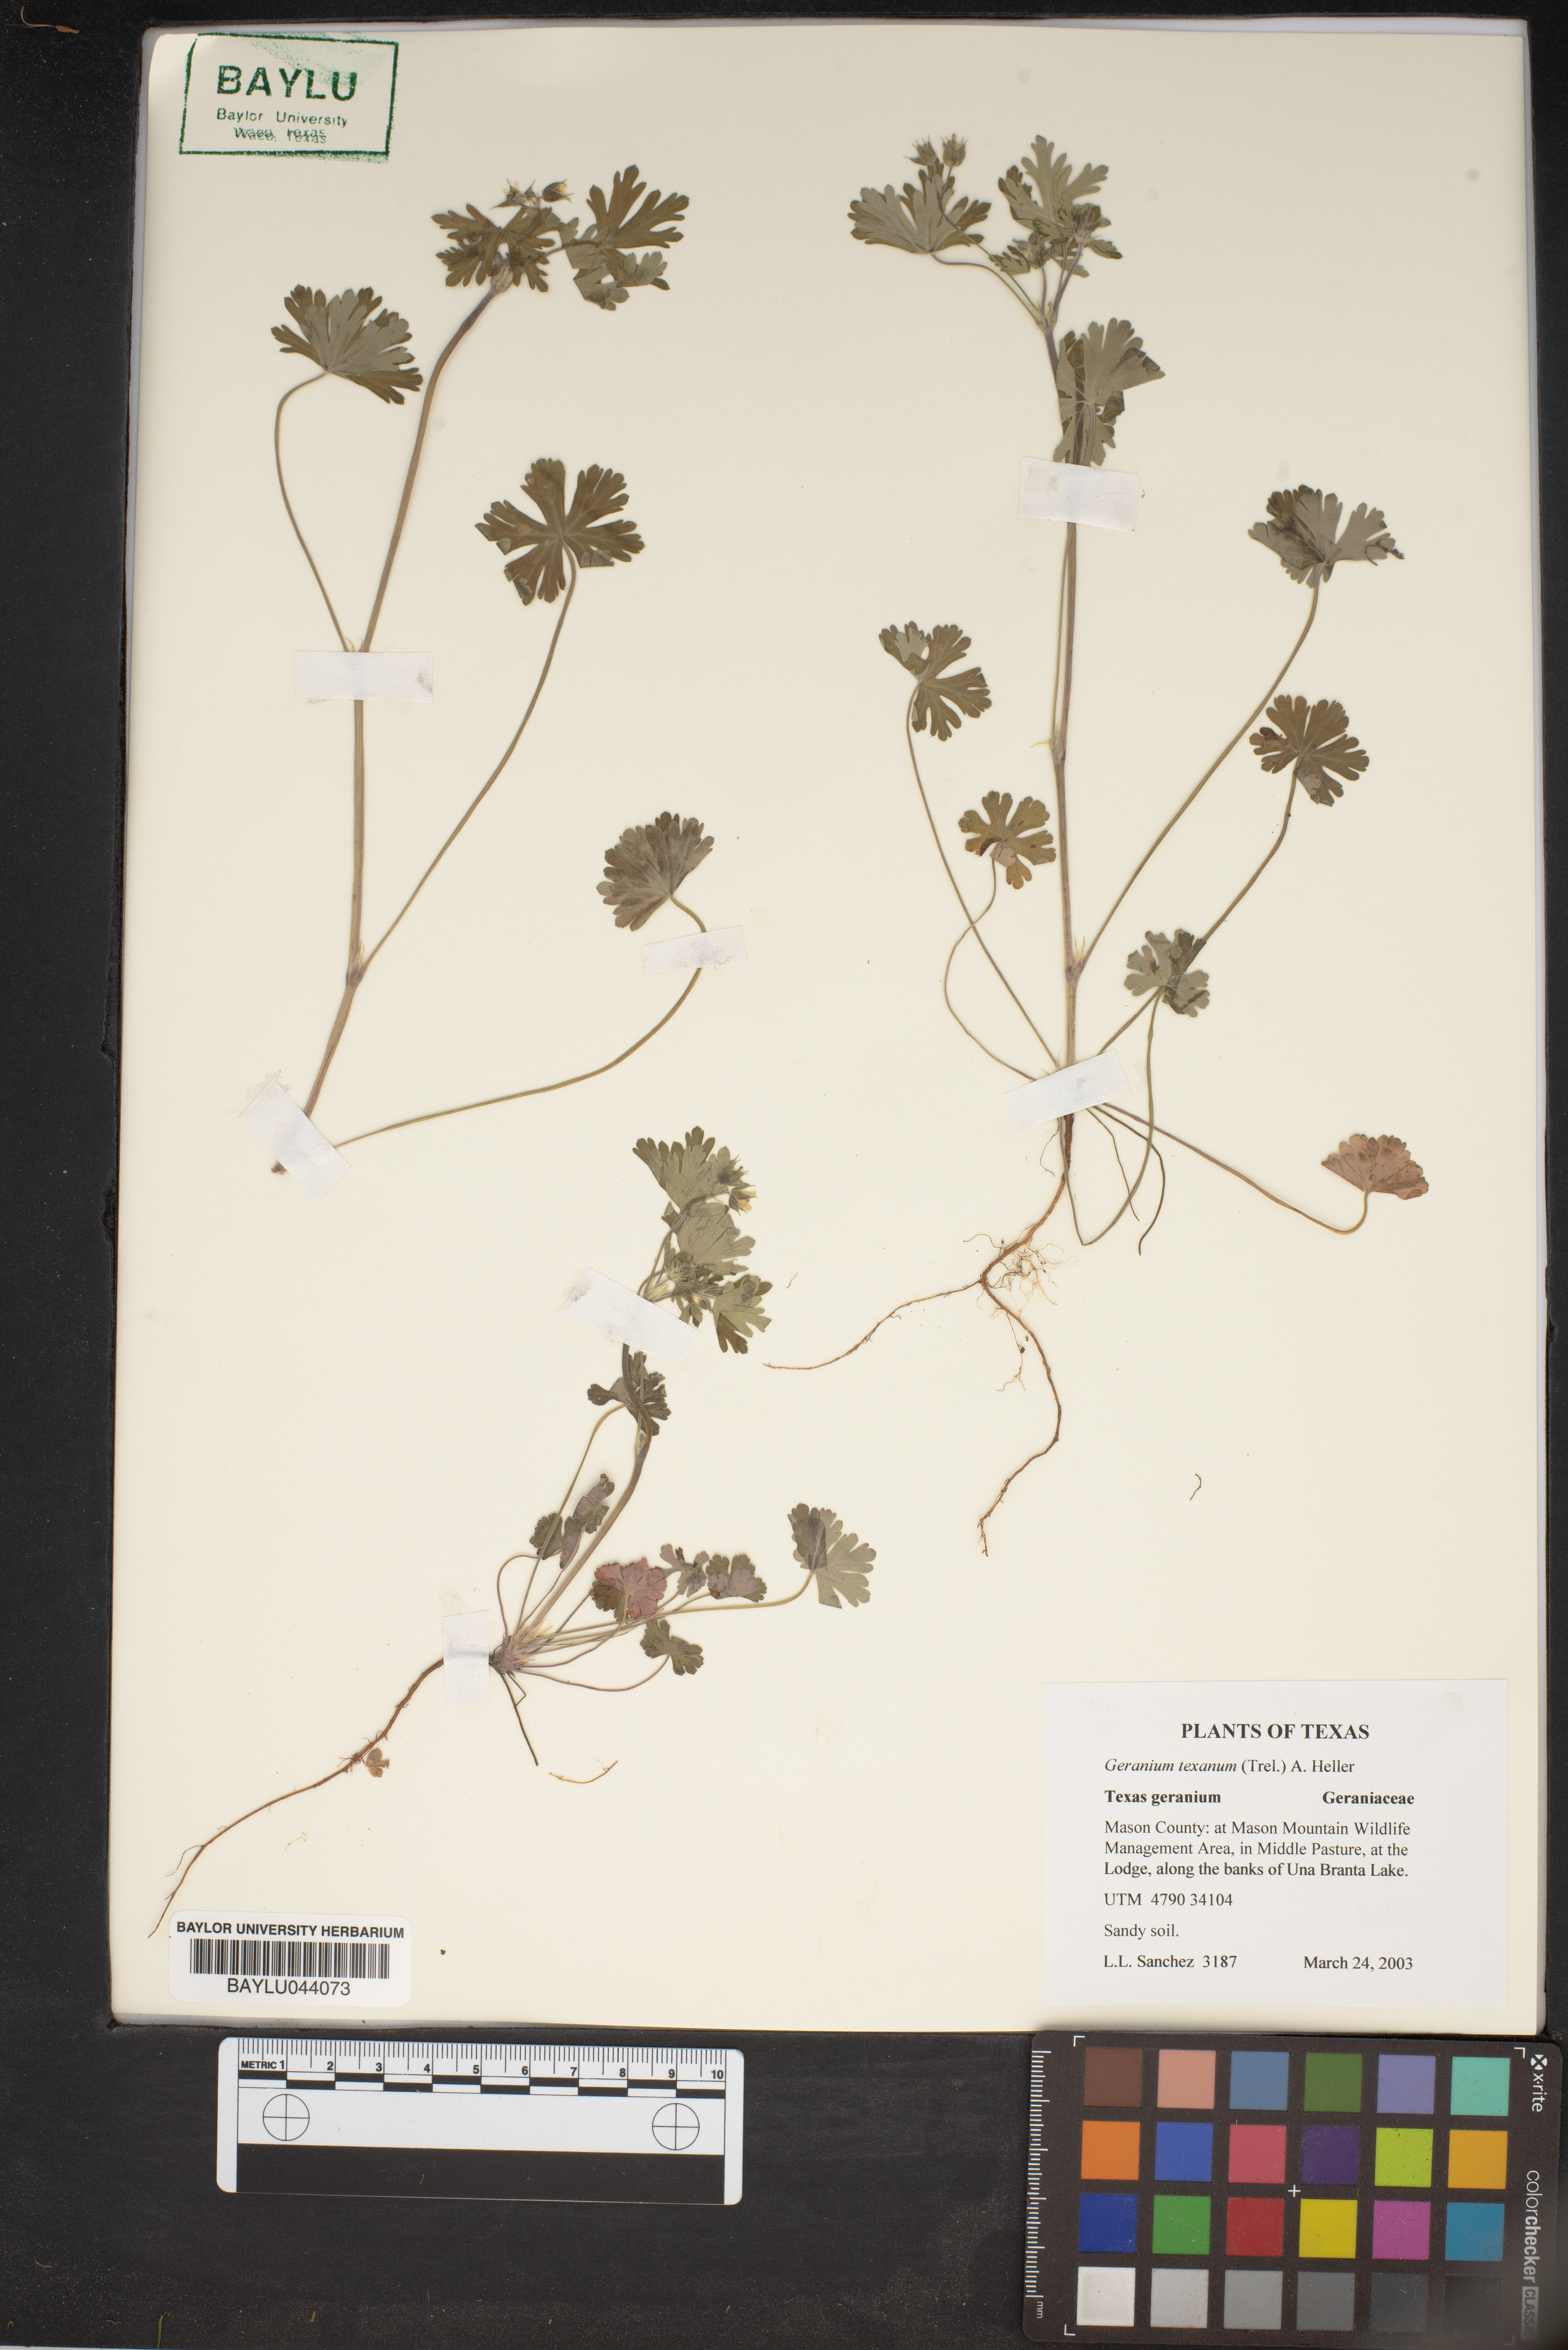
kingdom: Plantae
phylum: Tracheophyta
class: Magnoliopsida
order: Geraniales
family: Geraniaceae
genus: Geranium
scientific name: Geranium texanum
